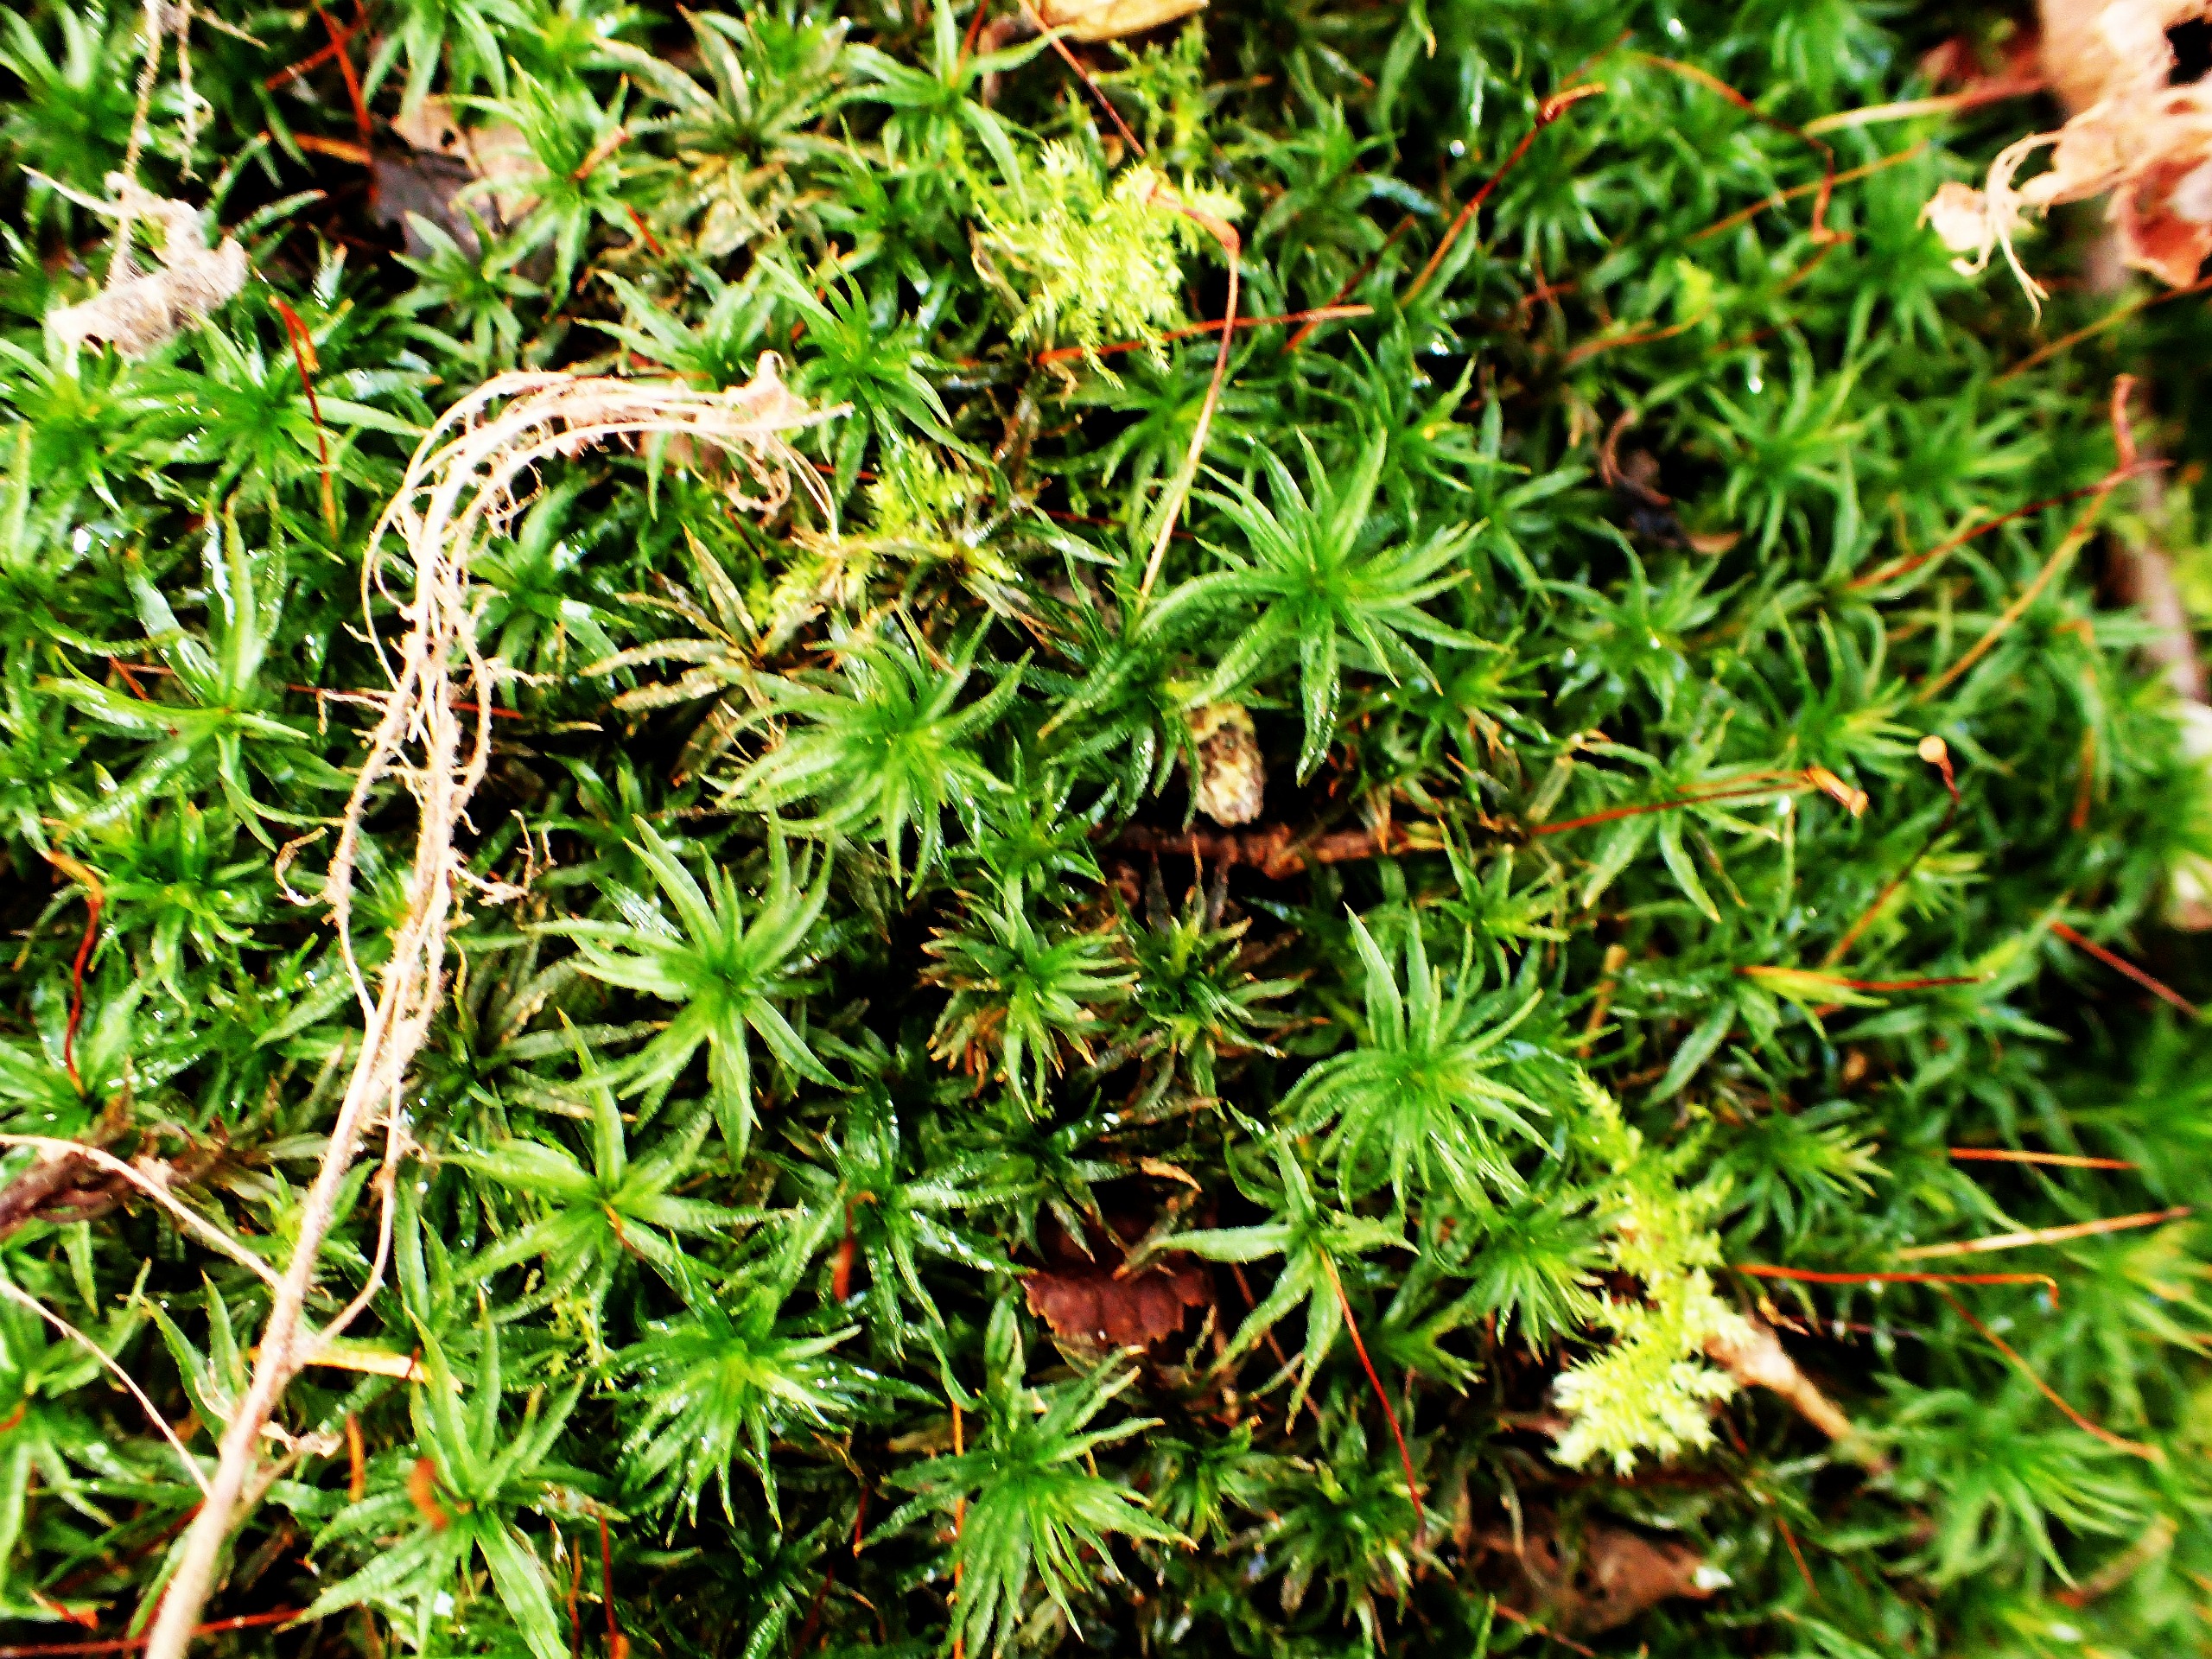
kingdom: Plantae
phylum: Bryophyta
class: Polytrichopsida
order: Polytrichales
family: Polytrichaceae
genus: Atrichum
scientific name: Atrichum undulatum
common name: Bølget katrinemos
